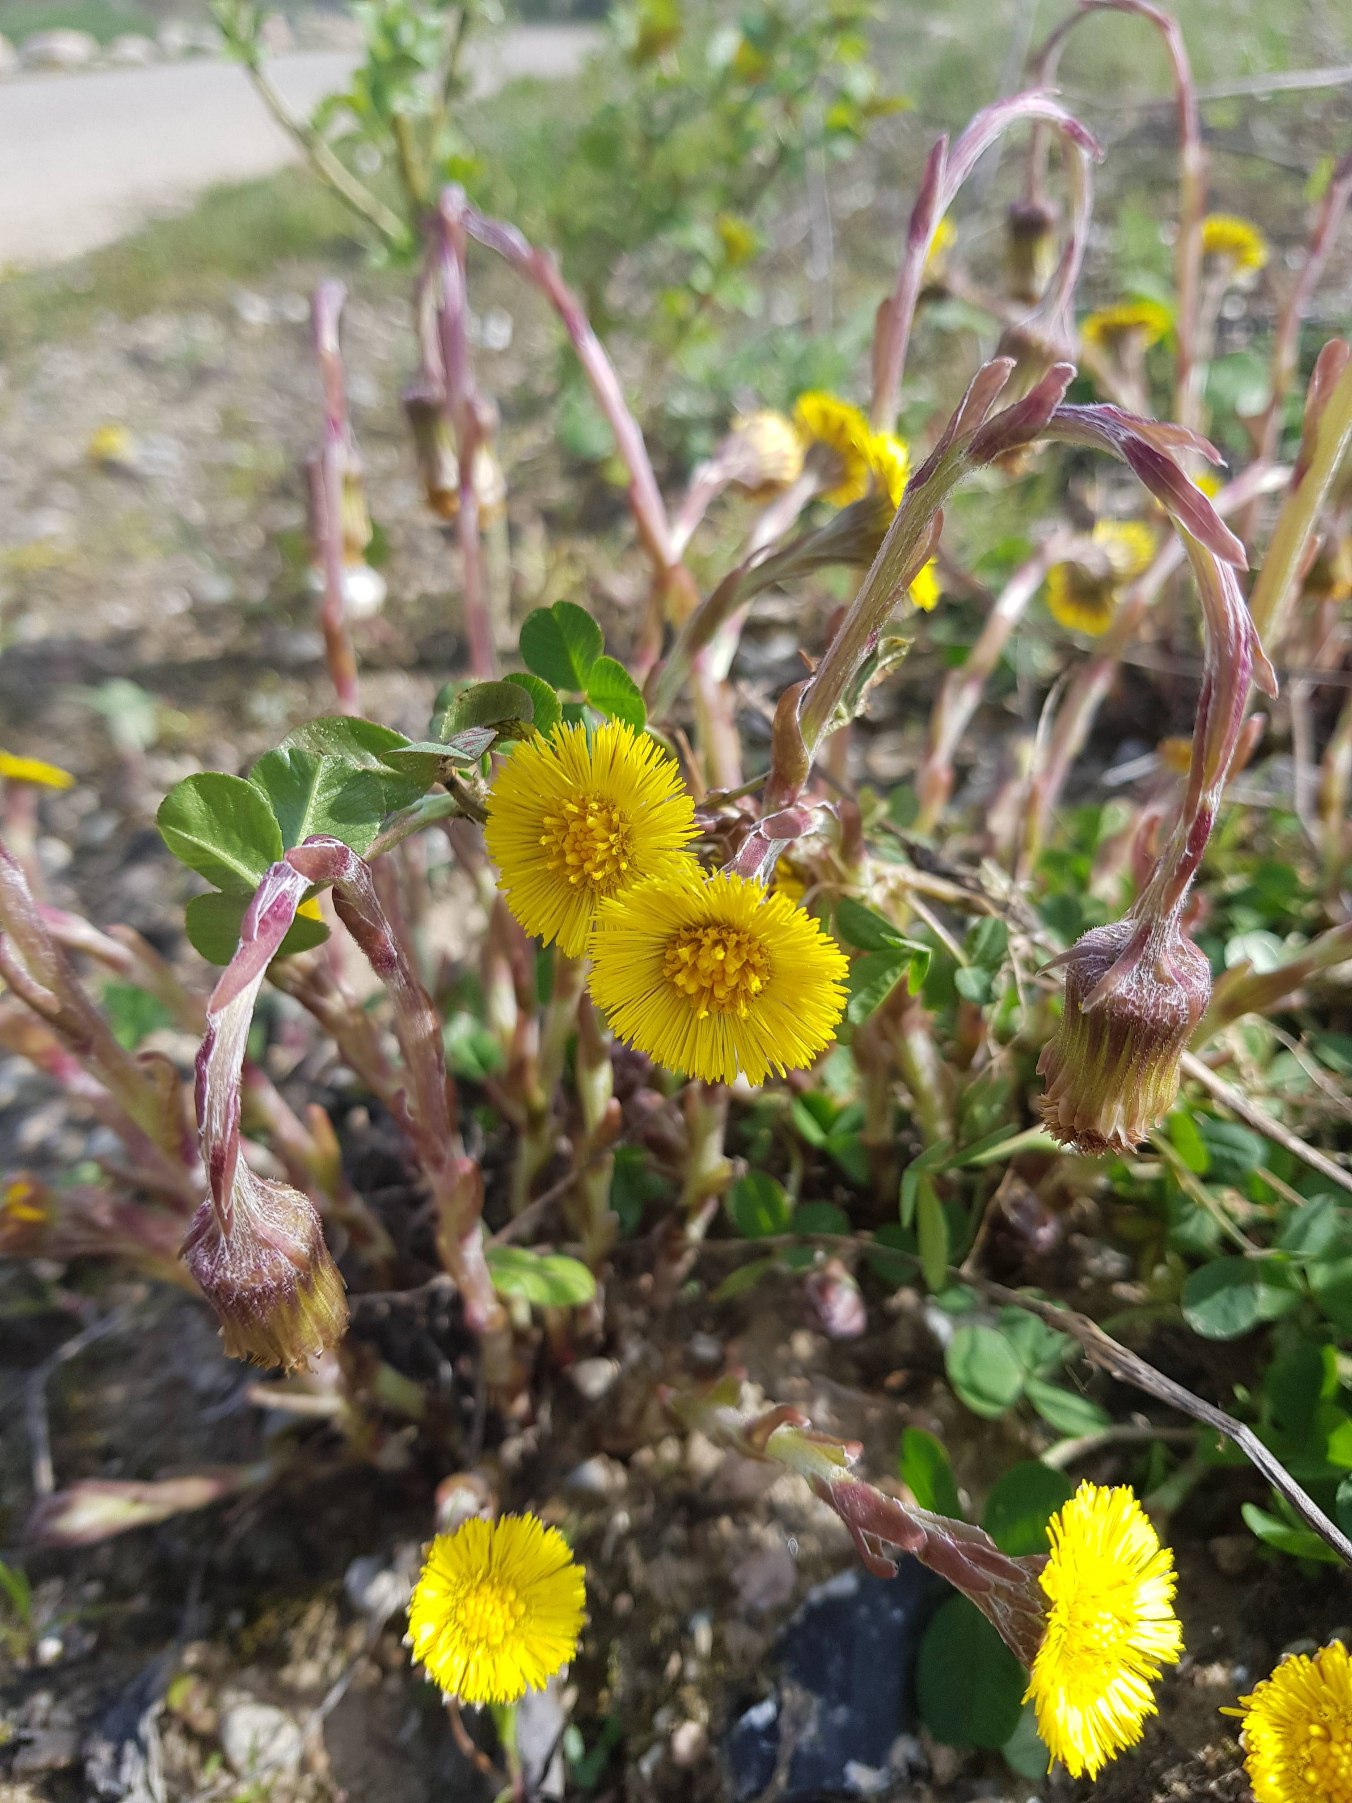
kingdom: Plantae
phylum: Tracheophyta
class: Magnoliopsida
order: Asterales
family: Asteraceae
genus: Tussilago
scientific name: Tussilago farfara
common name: Følfod
